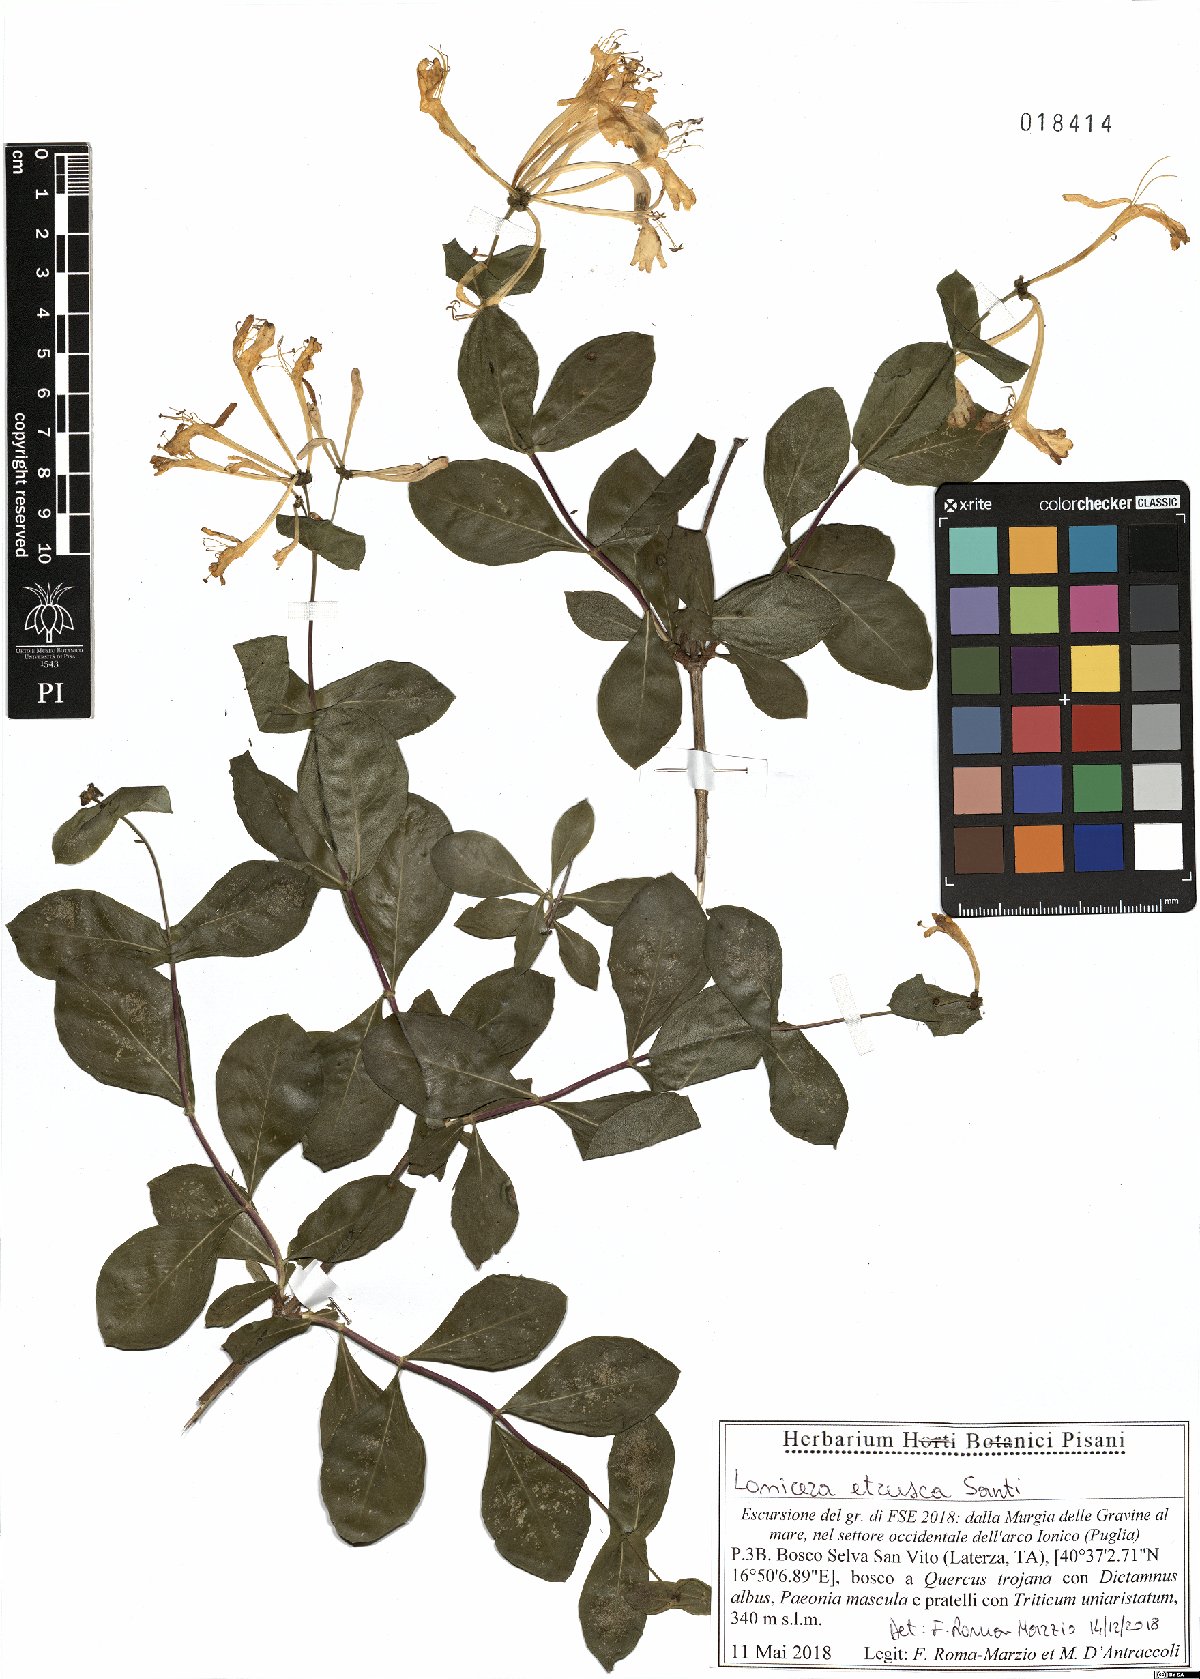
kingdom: Plantae
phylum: Tracheophyta
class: Magnoliopsida
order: Dipsacales
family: Caprifoliaceae
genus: Lonicera
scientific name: Lonicera etrusca
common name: Etruscan honeysuckle
